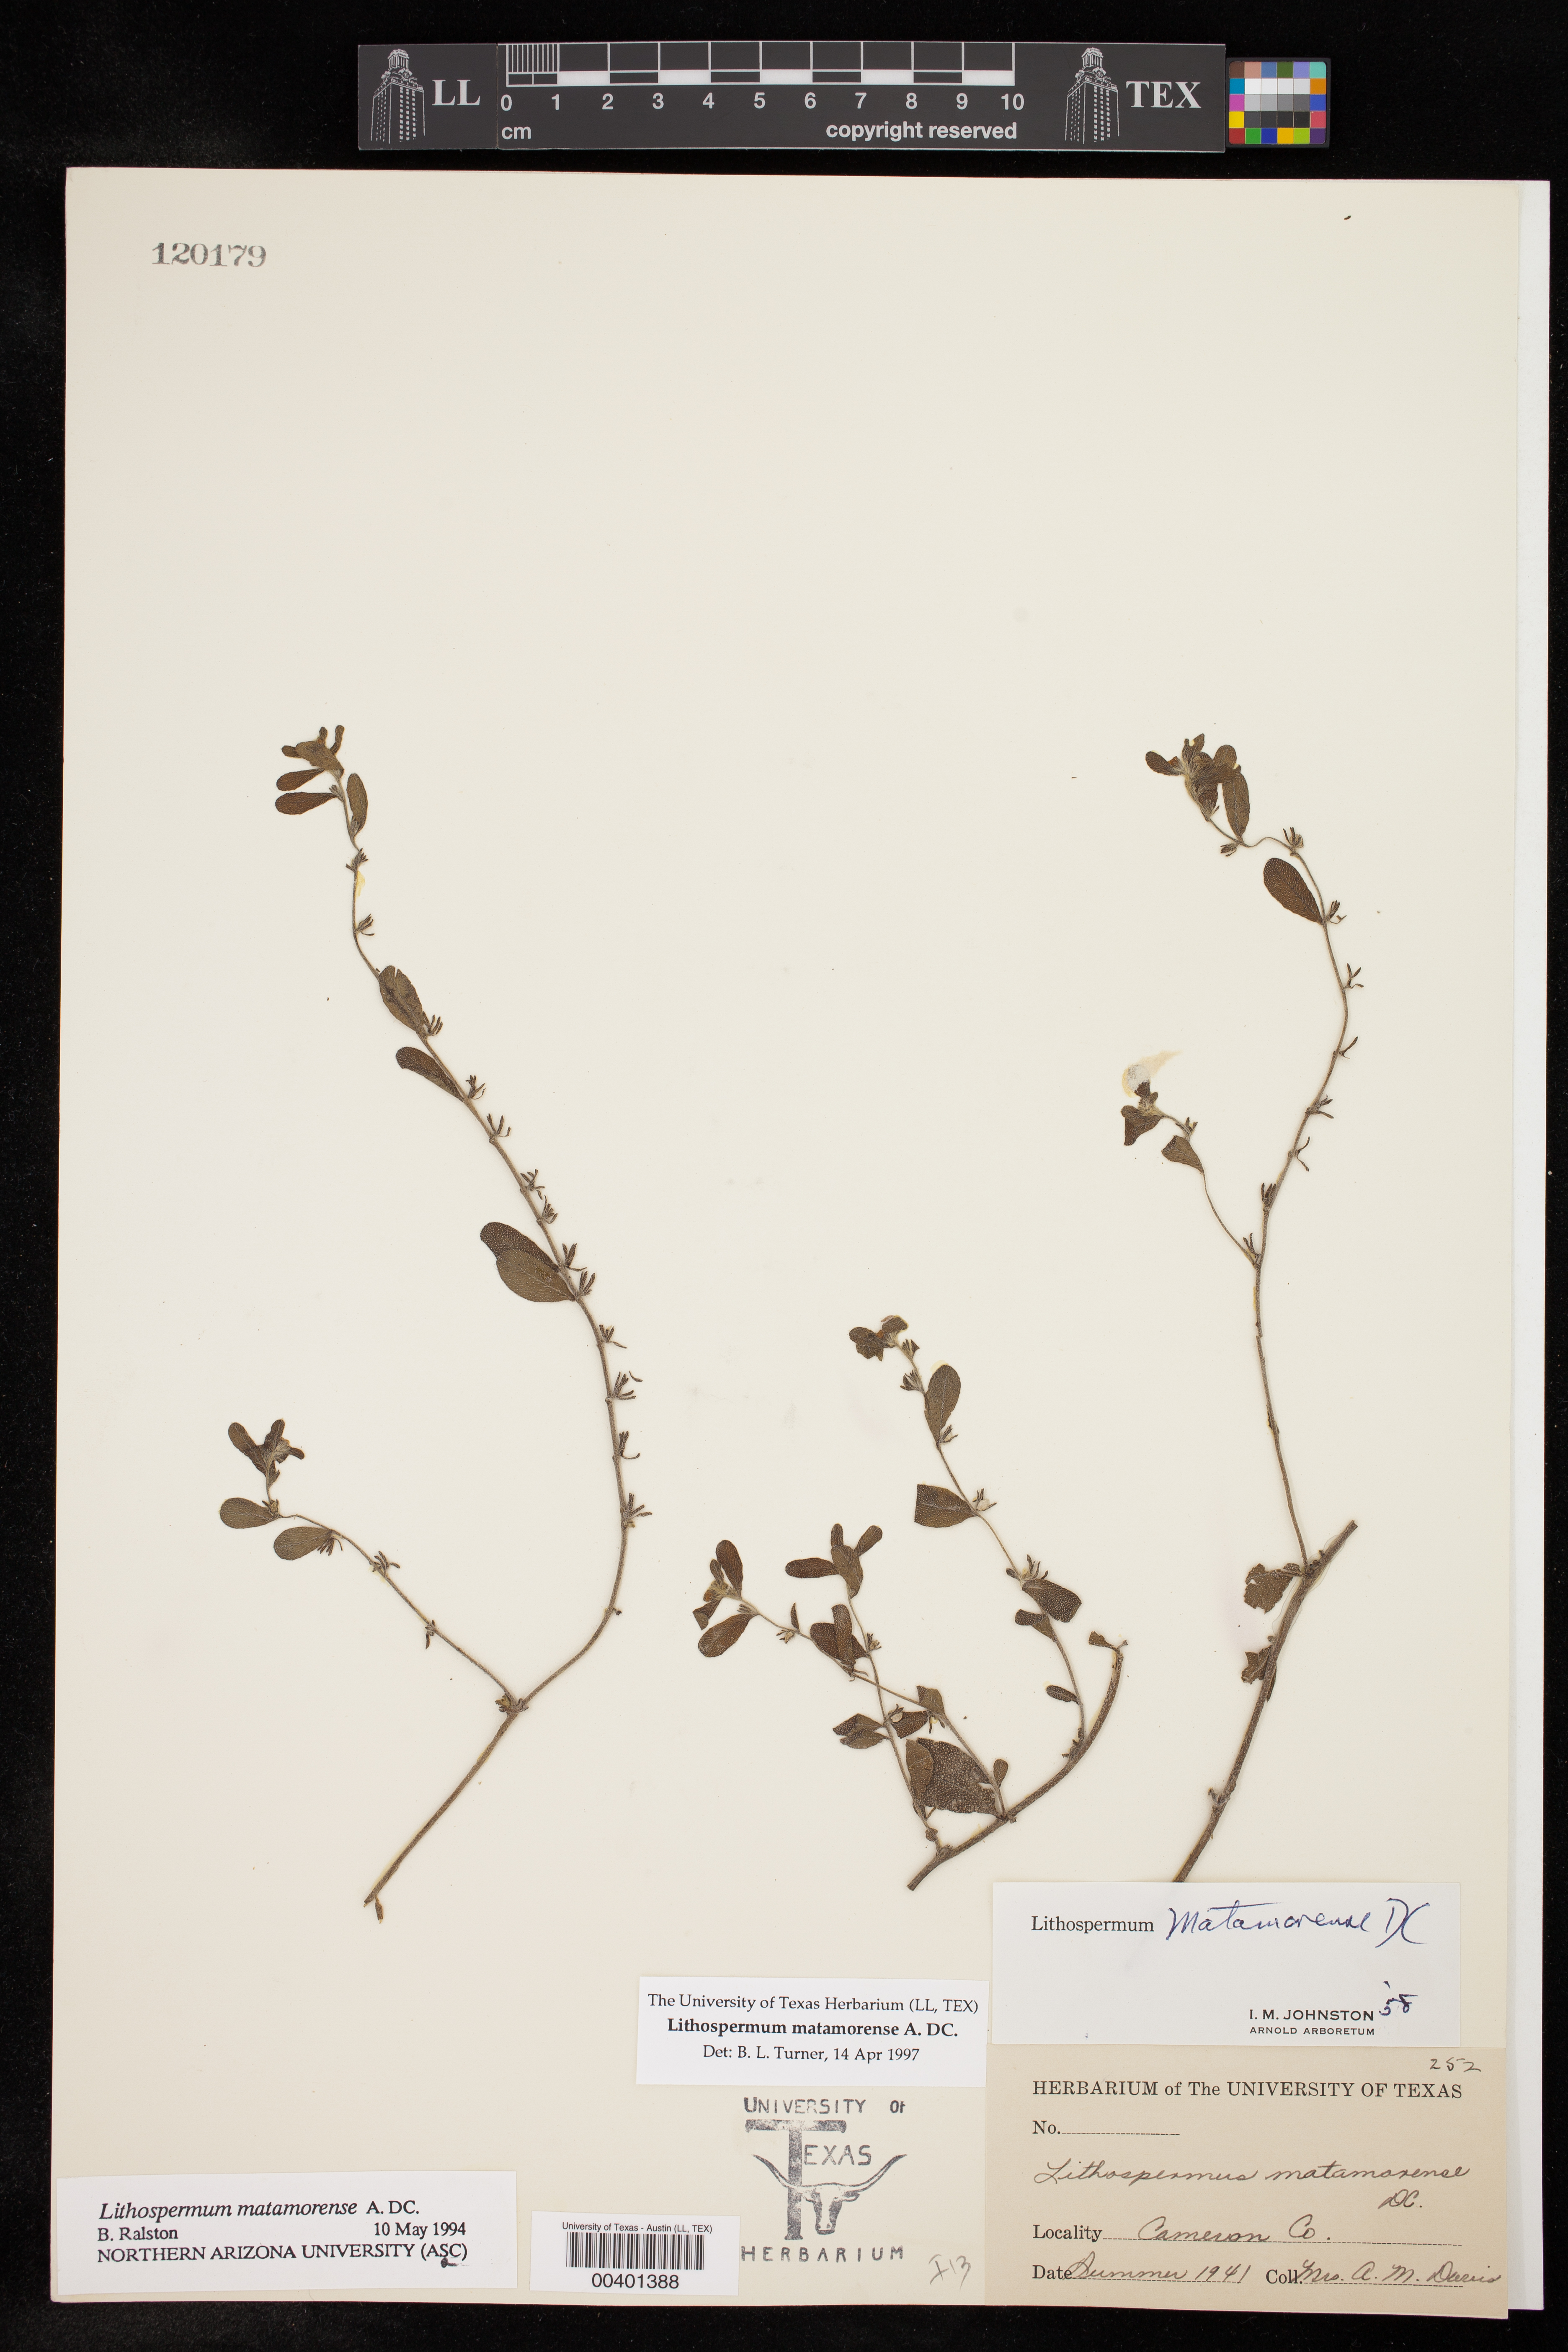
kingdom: Plantae
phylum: Tracheophyta
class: Magnoliopsida
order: Boraginales
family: Boraginaceae
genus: Lithospermum
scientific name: Lithospermum matamorense
